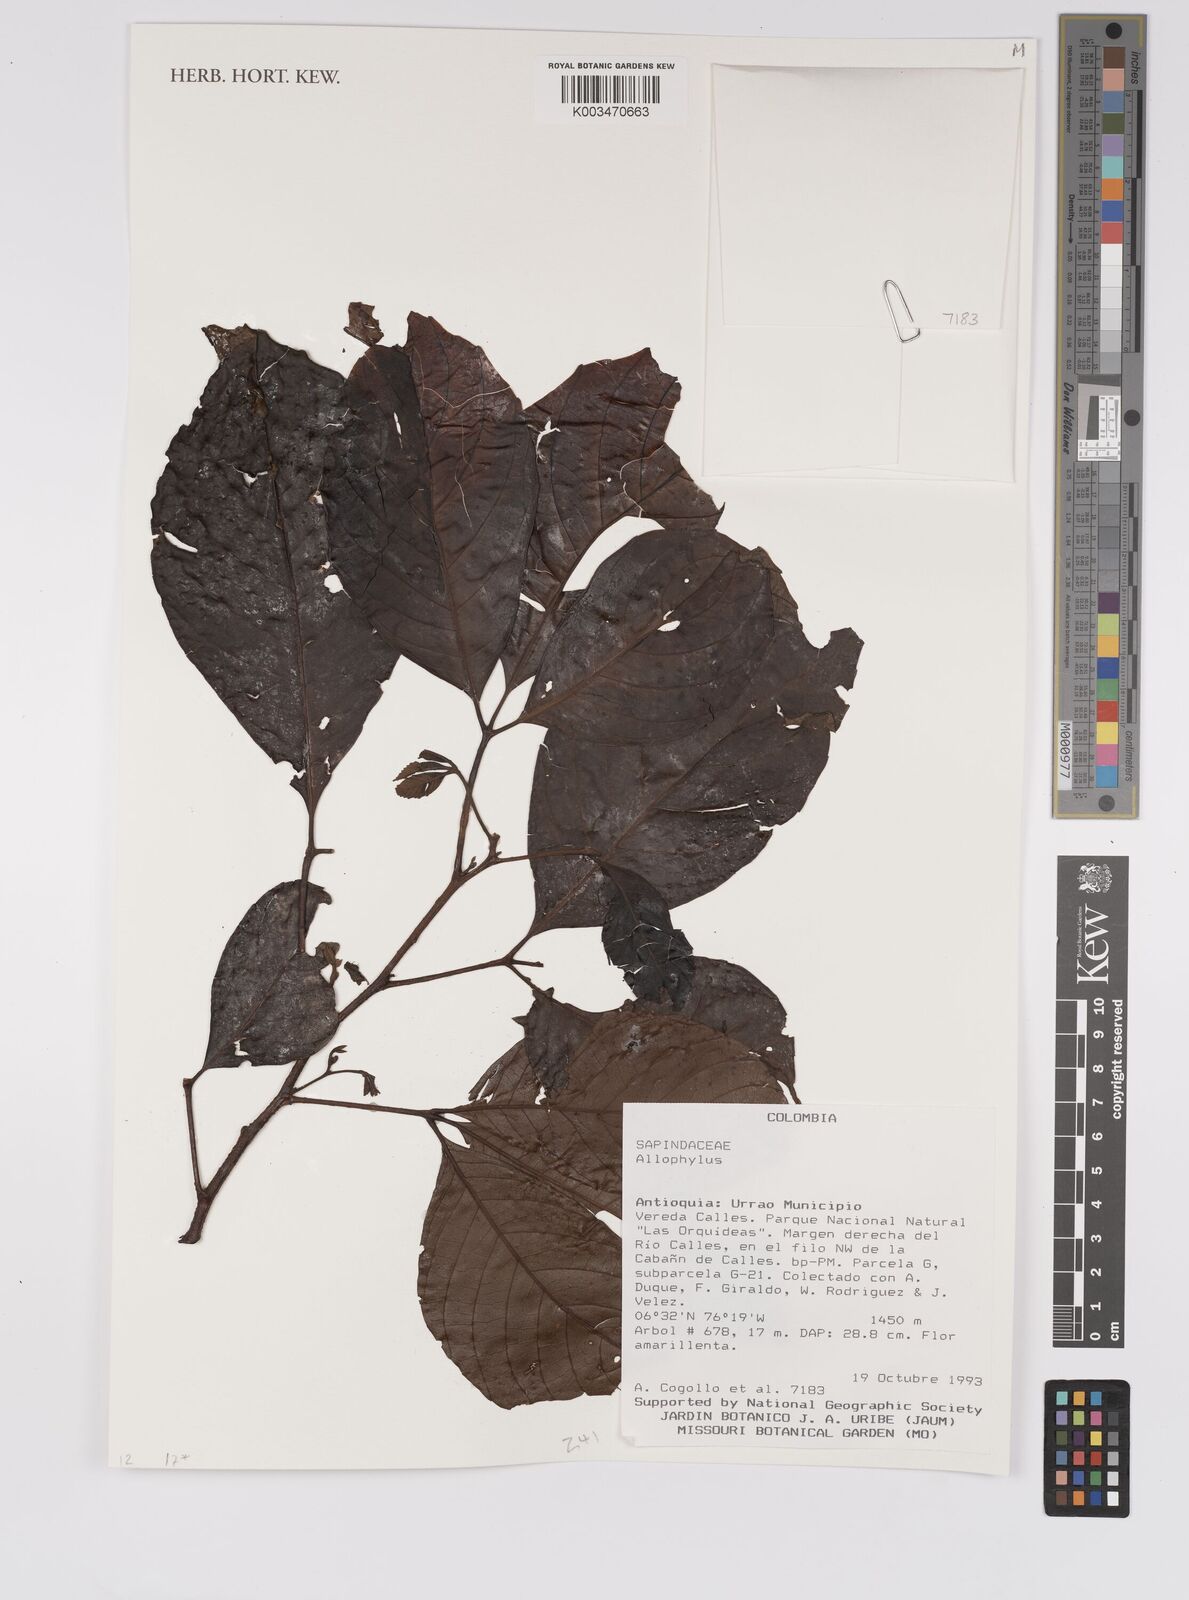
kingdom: Plantae
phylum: Tracheophyta
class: Magnoliopsida
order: Sapindales
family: Sapindaceae
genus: Allophylus
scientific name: Allophylus
